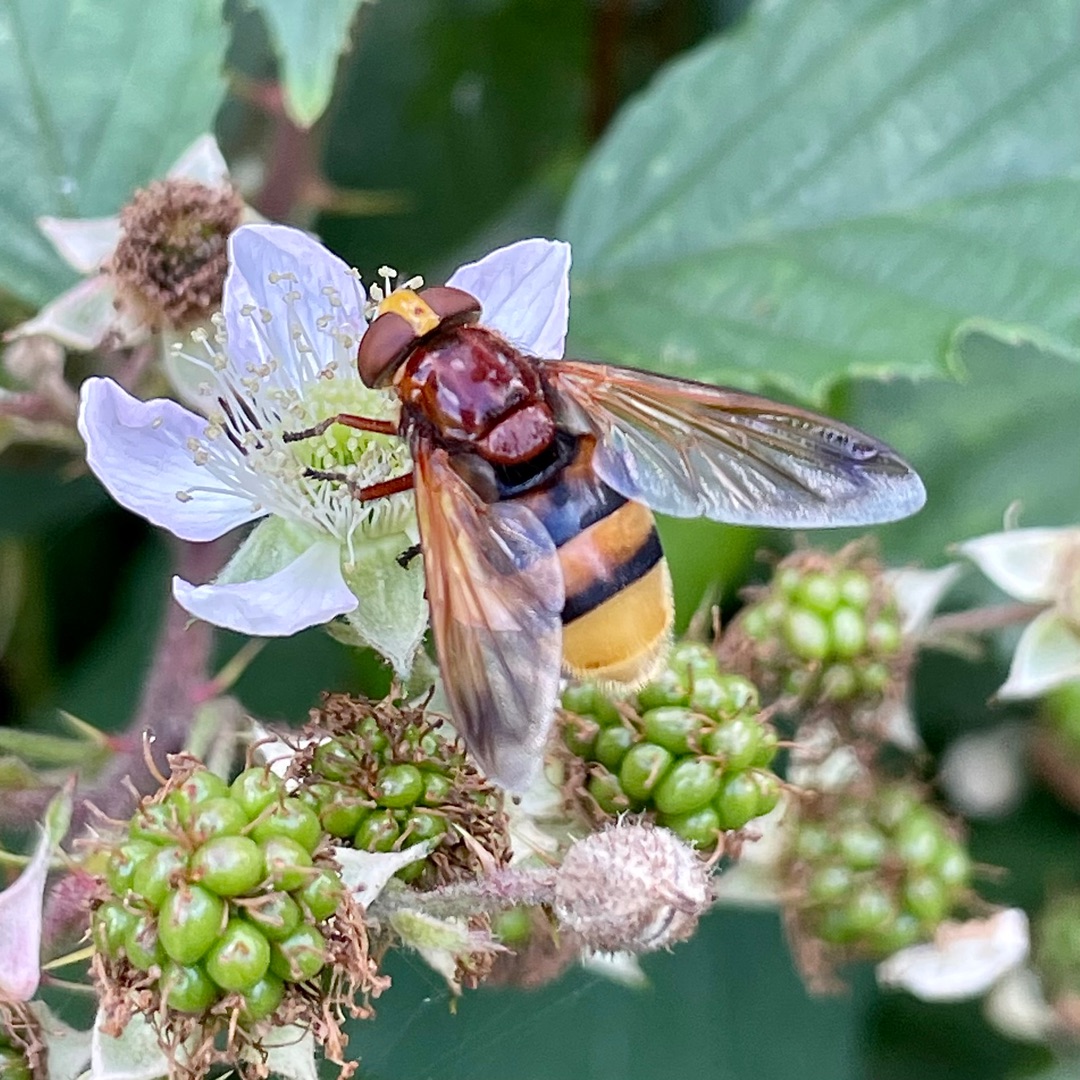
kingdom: Animalia
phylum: Arthropoda
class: Insecta
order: Diptera
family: Syrphidae
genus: Volucella
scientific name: Volucella zonaria
